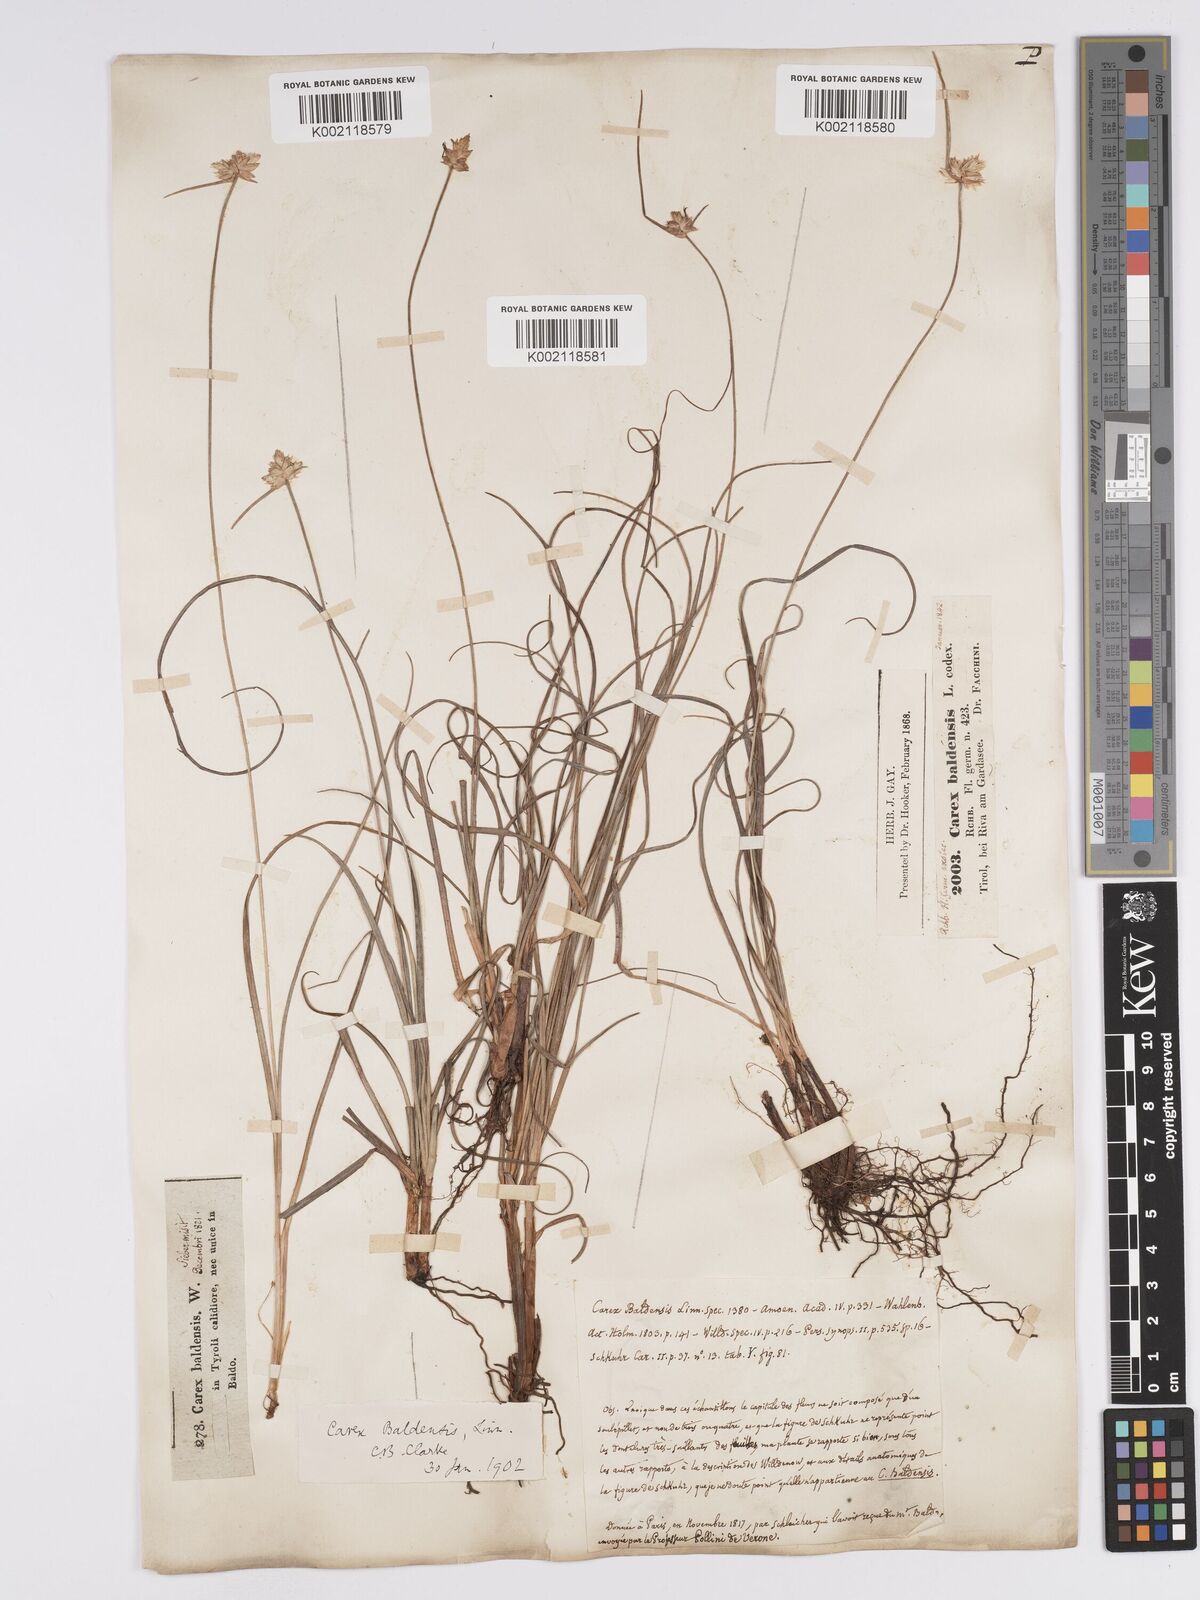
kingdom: Plantae
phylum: Tracheophyta
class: Liliopsida
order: Poales
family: Cyperaceae
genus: Carex
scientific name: Carex baldensis
